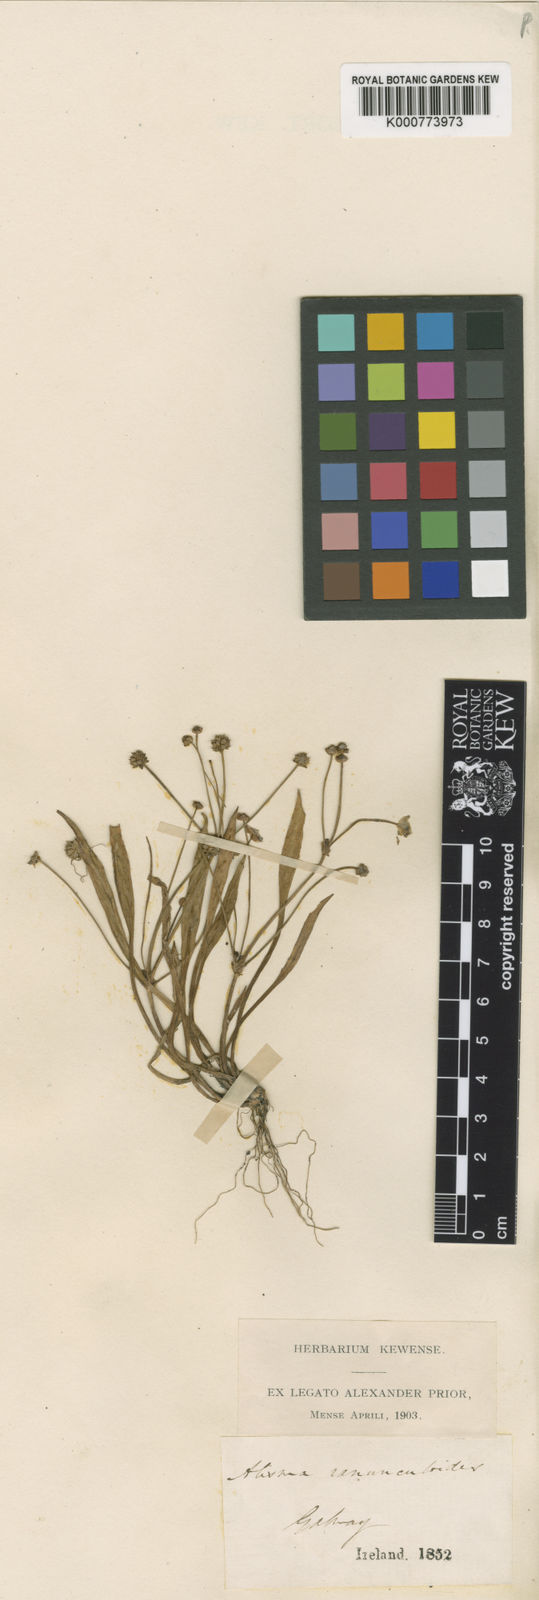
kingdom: Plantae
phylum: Tracheophyta
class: Liliopsida
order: Alismatales
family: Alismataceae
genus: Baldellia
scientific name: Baldellia ranunculoides
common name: Lesser water-plantain
